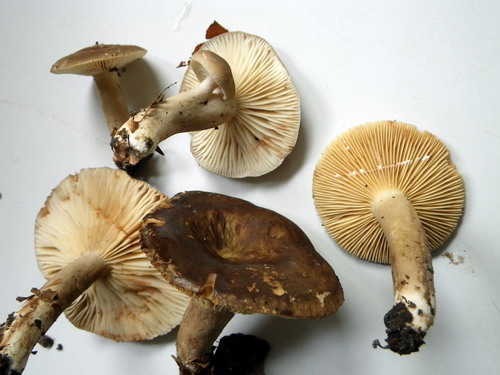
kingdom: Fungi
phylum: Basidiomycota
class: Agaricomycetes
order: Russulales
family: Russulaceae
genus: Lactarius
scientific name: Lactarius romagnesii
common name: fjernbladet mælkehat
